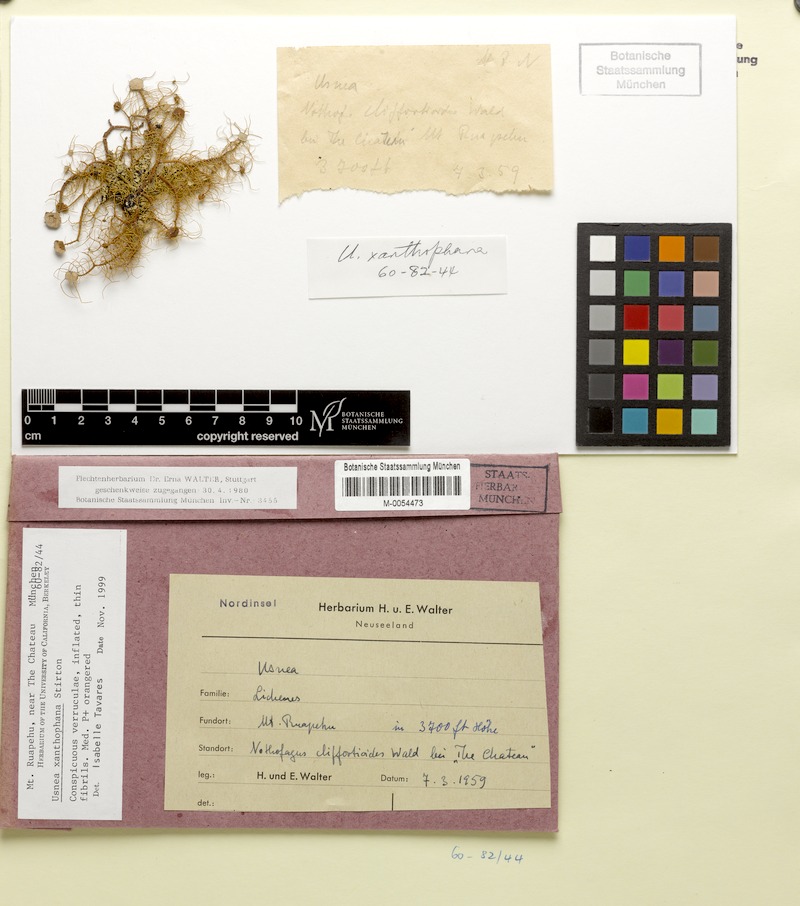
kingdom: Fungi
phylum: Ascomycota
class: Lecanoromycetes
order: Lecanorales
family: Parmeliaceae
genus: Usnea
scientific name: Usnea
